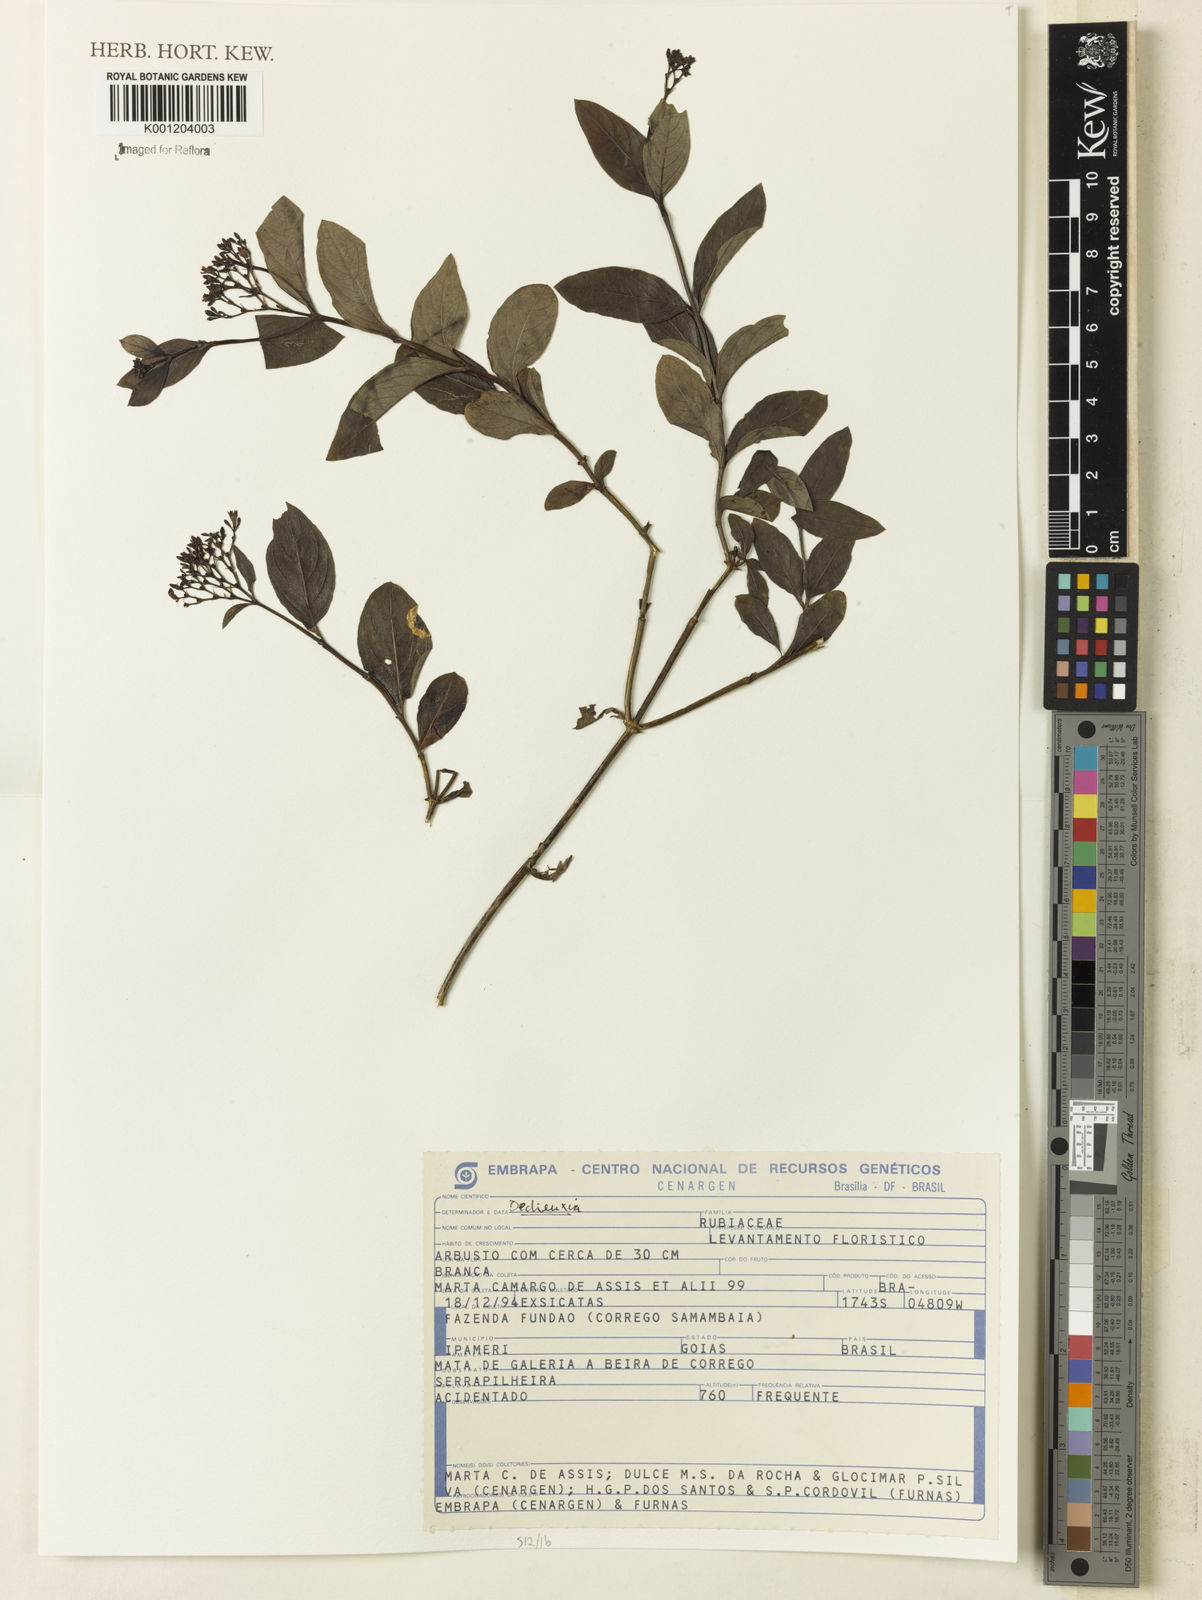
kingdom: Plantae
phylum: Tracheophyta
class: Magnoliopsida
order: Gentianales
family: Rubiaceae
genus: Declieuxia
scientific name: Declieuxia
